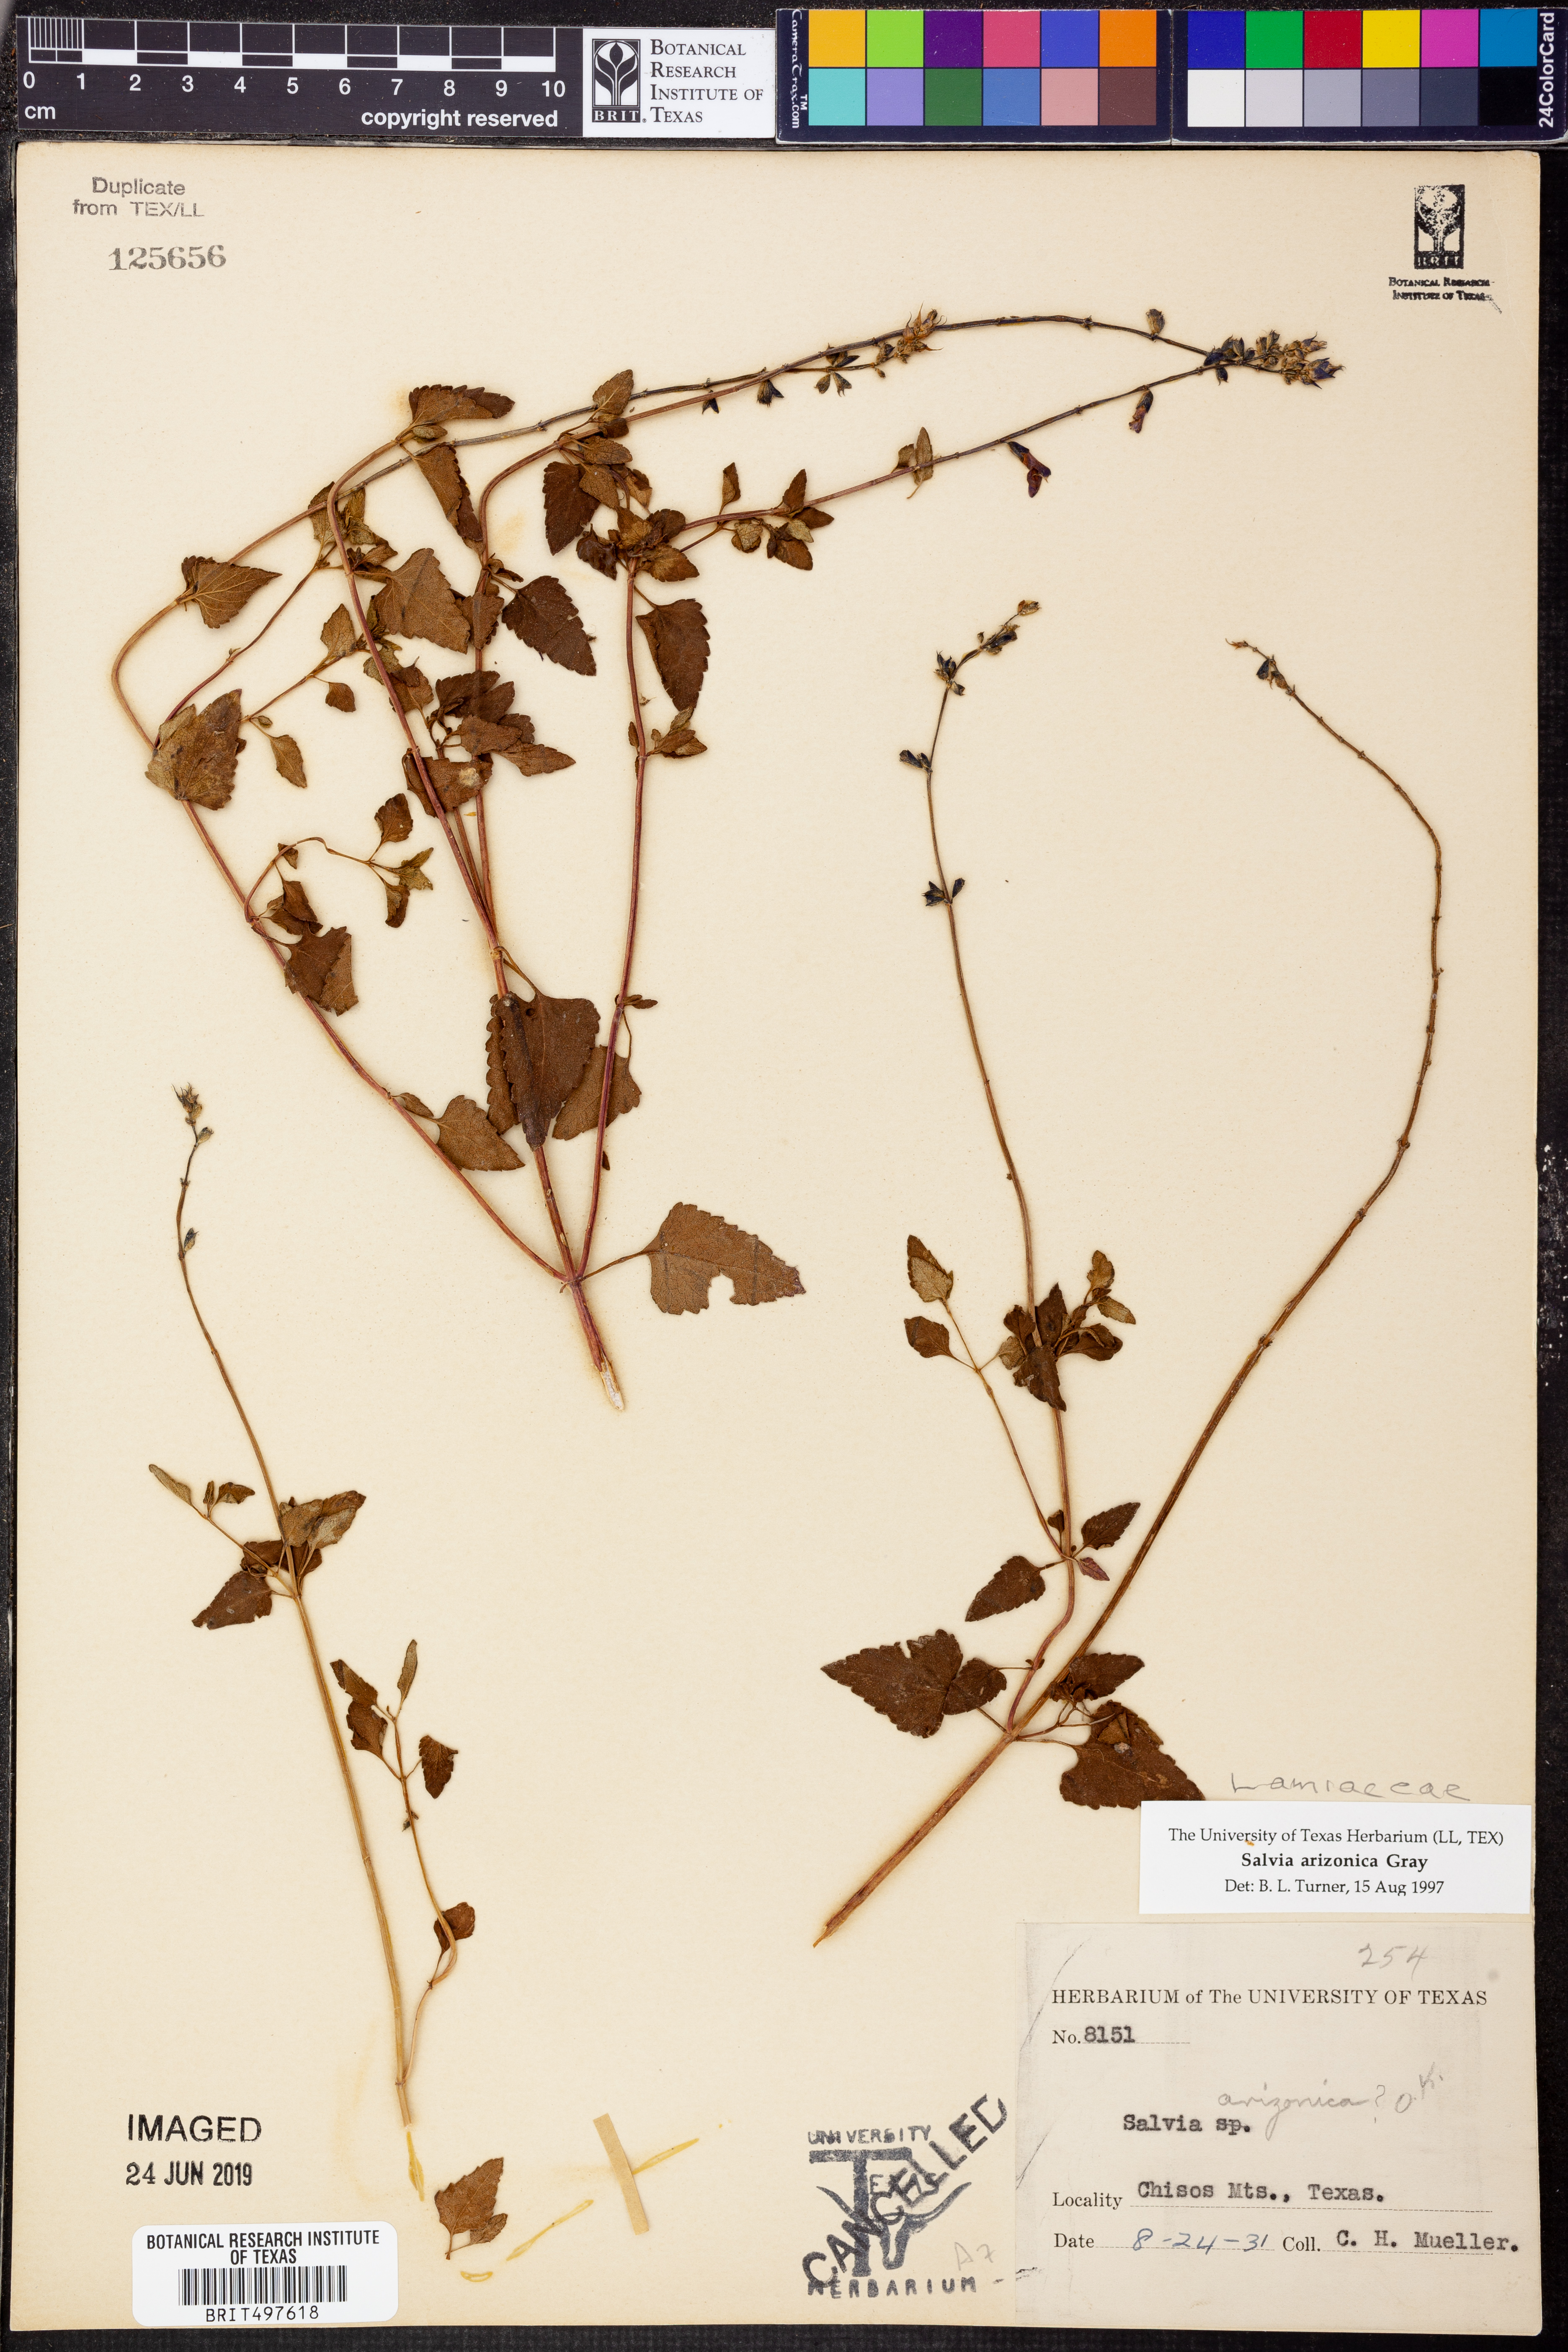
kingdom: Plantae
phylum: Tracheophyta
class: Magnoliopsida
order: Lamiales
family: Lamiaceae
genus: Salvia
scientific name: Salvia arizonica
